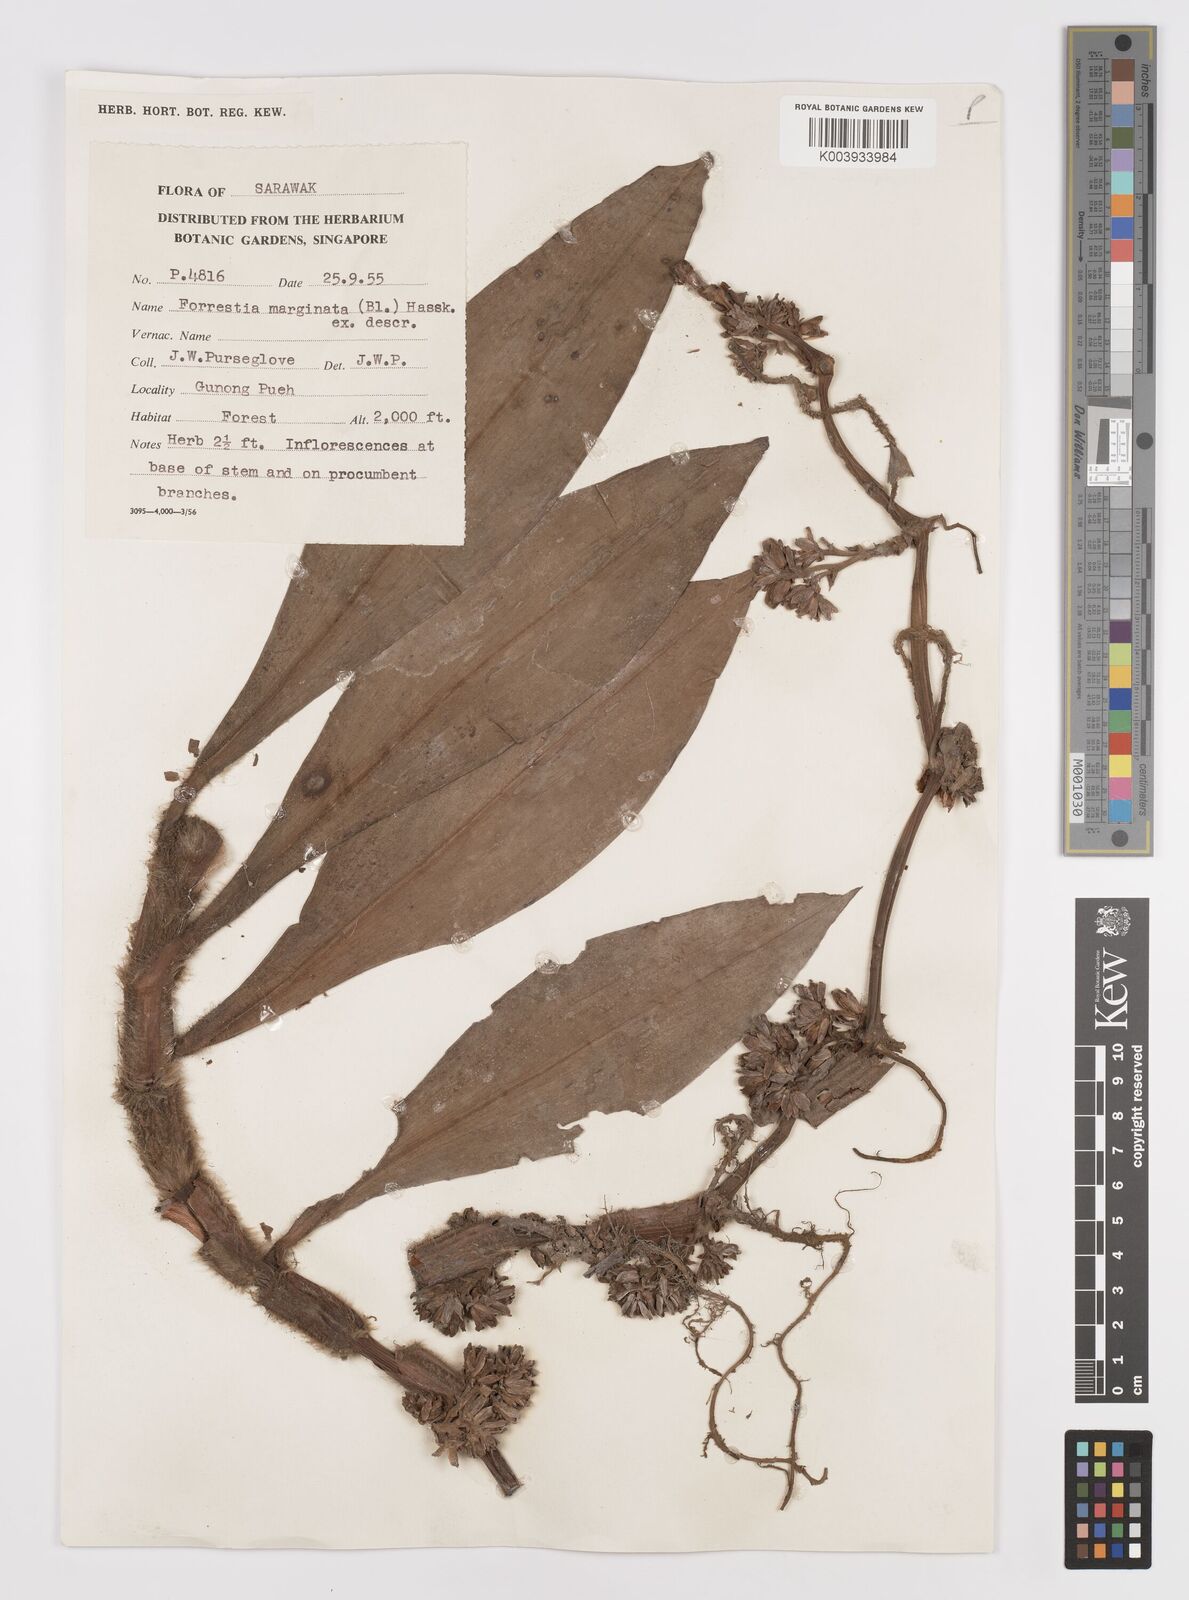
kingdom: Plantae
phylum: Tracheophyta
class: Liliopsida
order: Commelinales
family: Commelinaceae
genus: Amischotolype
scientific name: Amischotolype marginata
